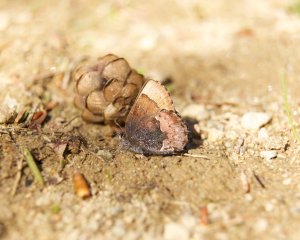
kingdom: Animalia
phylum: Arthropoda
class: Insecta
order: Lepidoptera
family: Lycaenidae
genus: Incisalia
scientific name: Incisalia henrici
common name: Henry's Elfin
